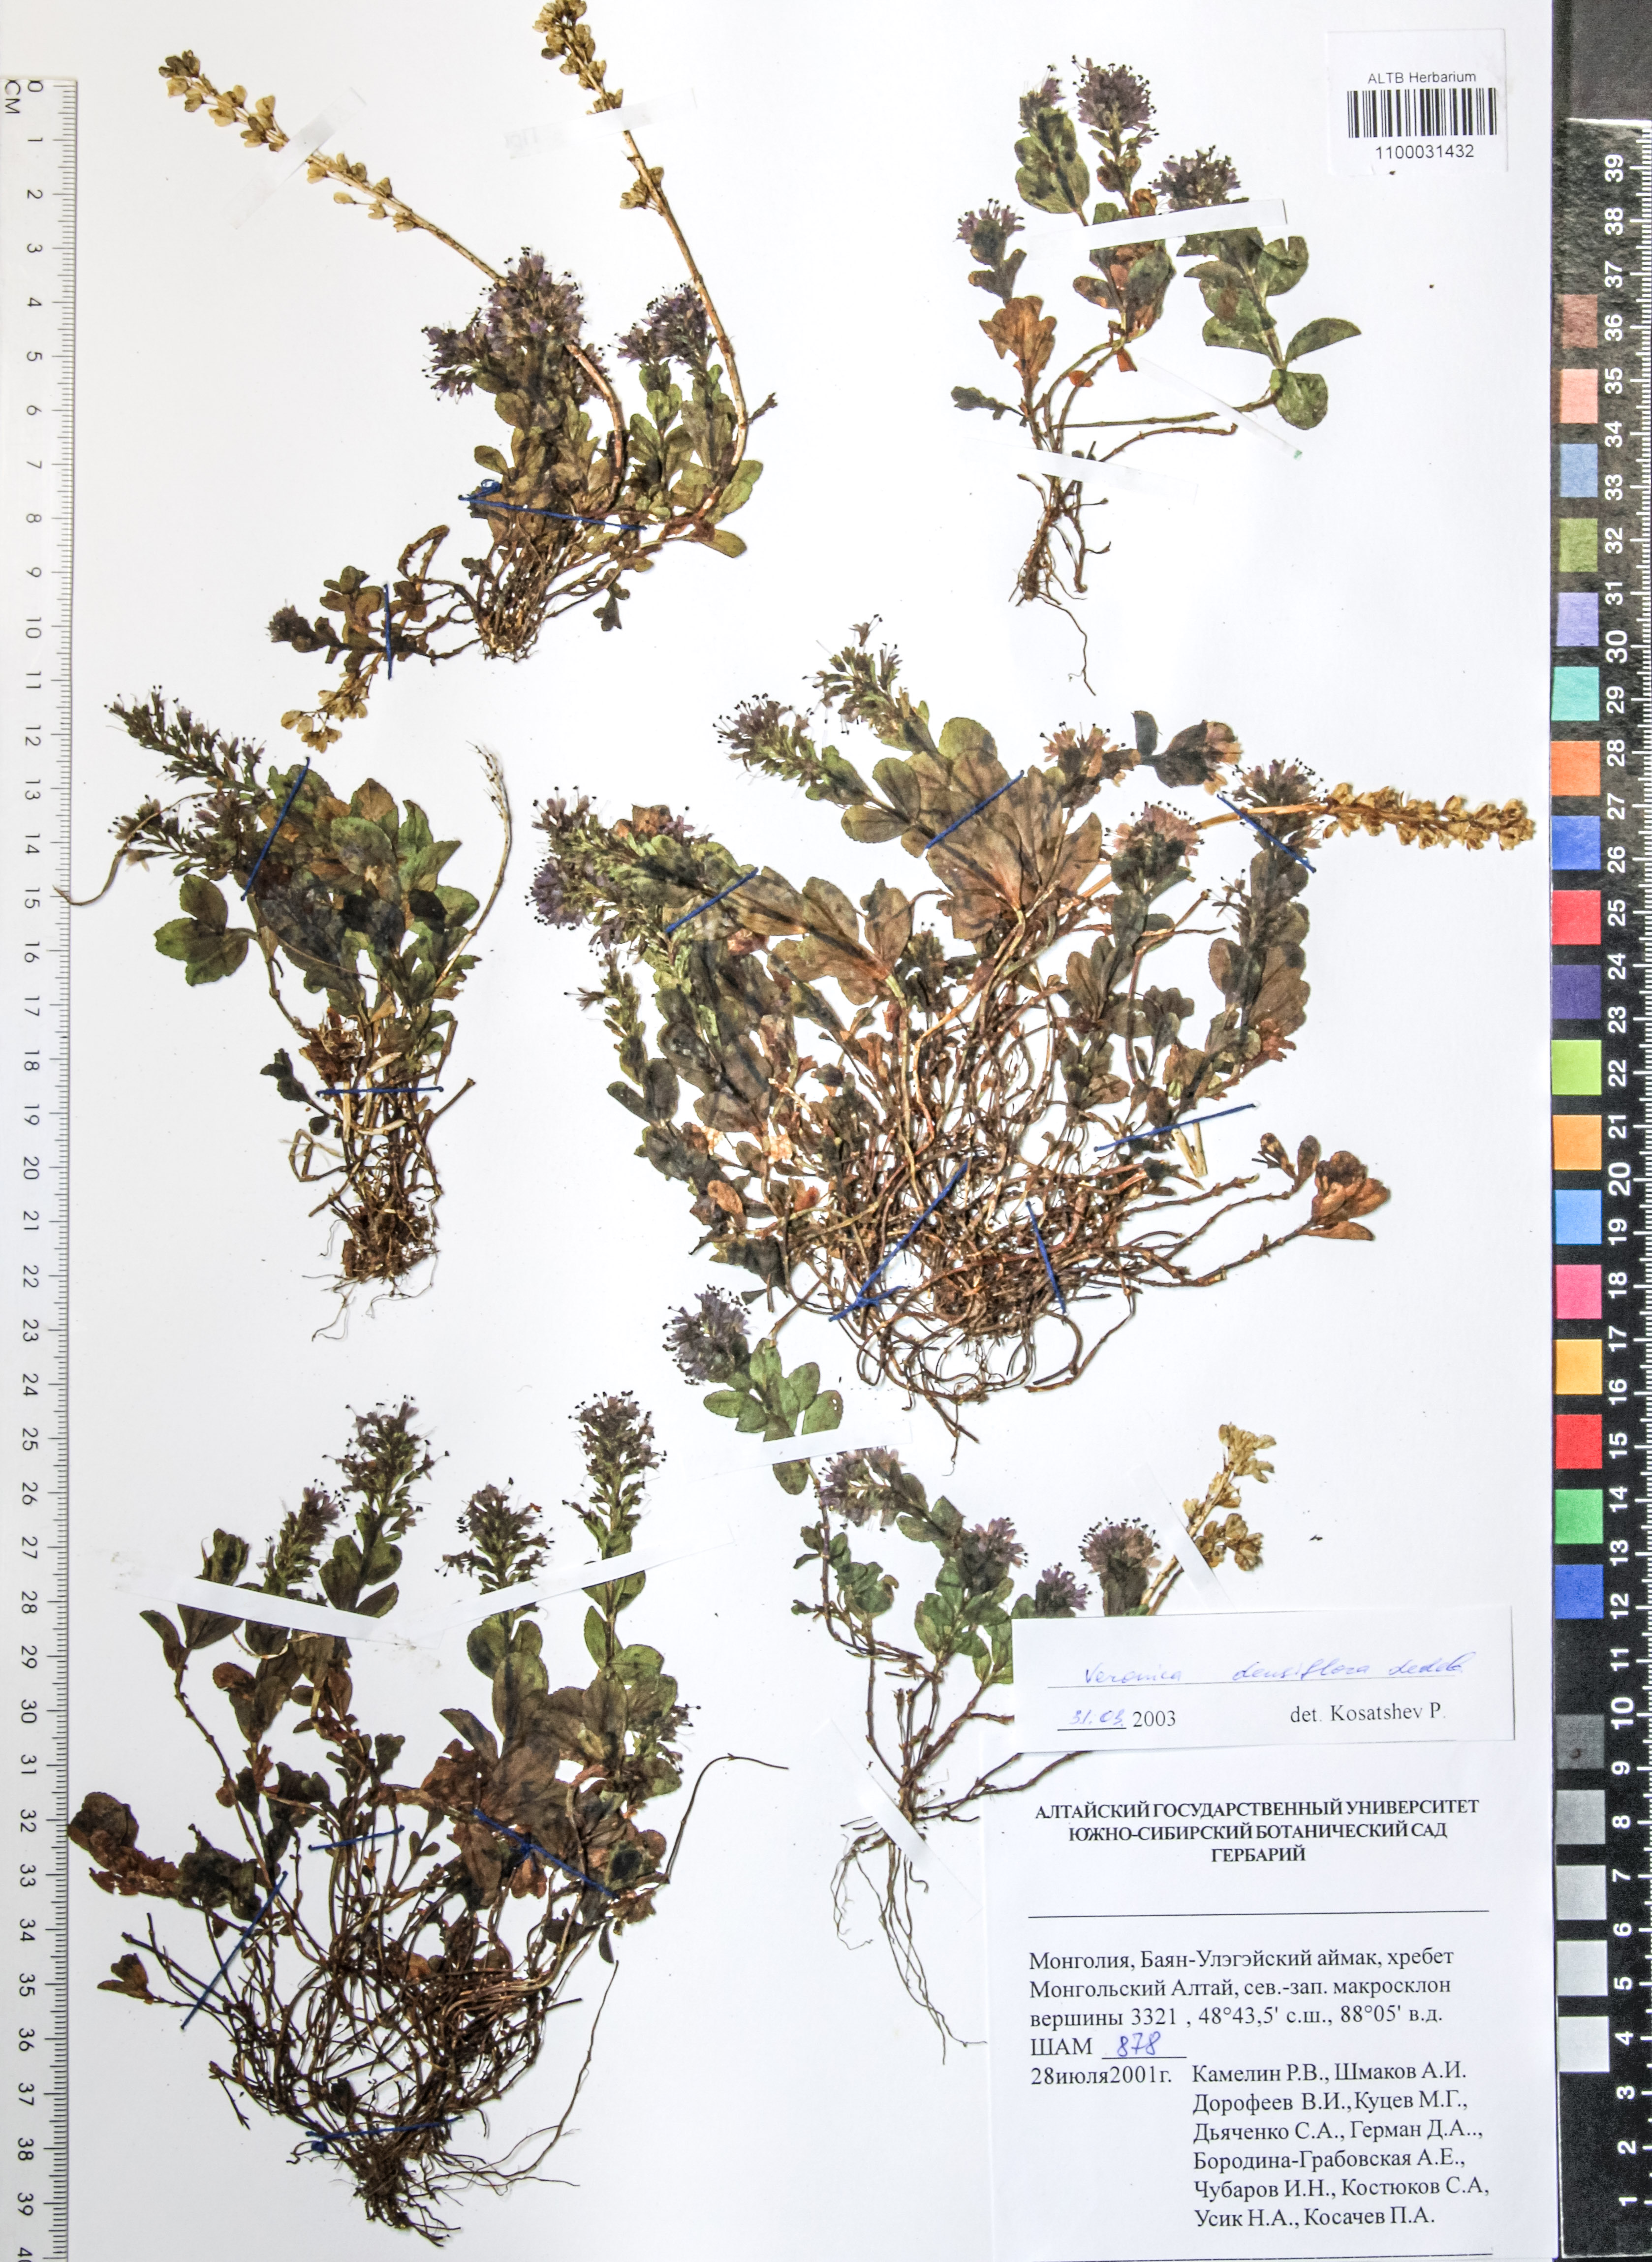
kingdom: Plantae
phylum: Tracheophyta
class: Magnoliopsida
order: Lamiales
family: Plantaginaceae
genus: Veronica
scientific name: Veronica densiflora
